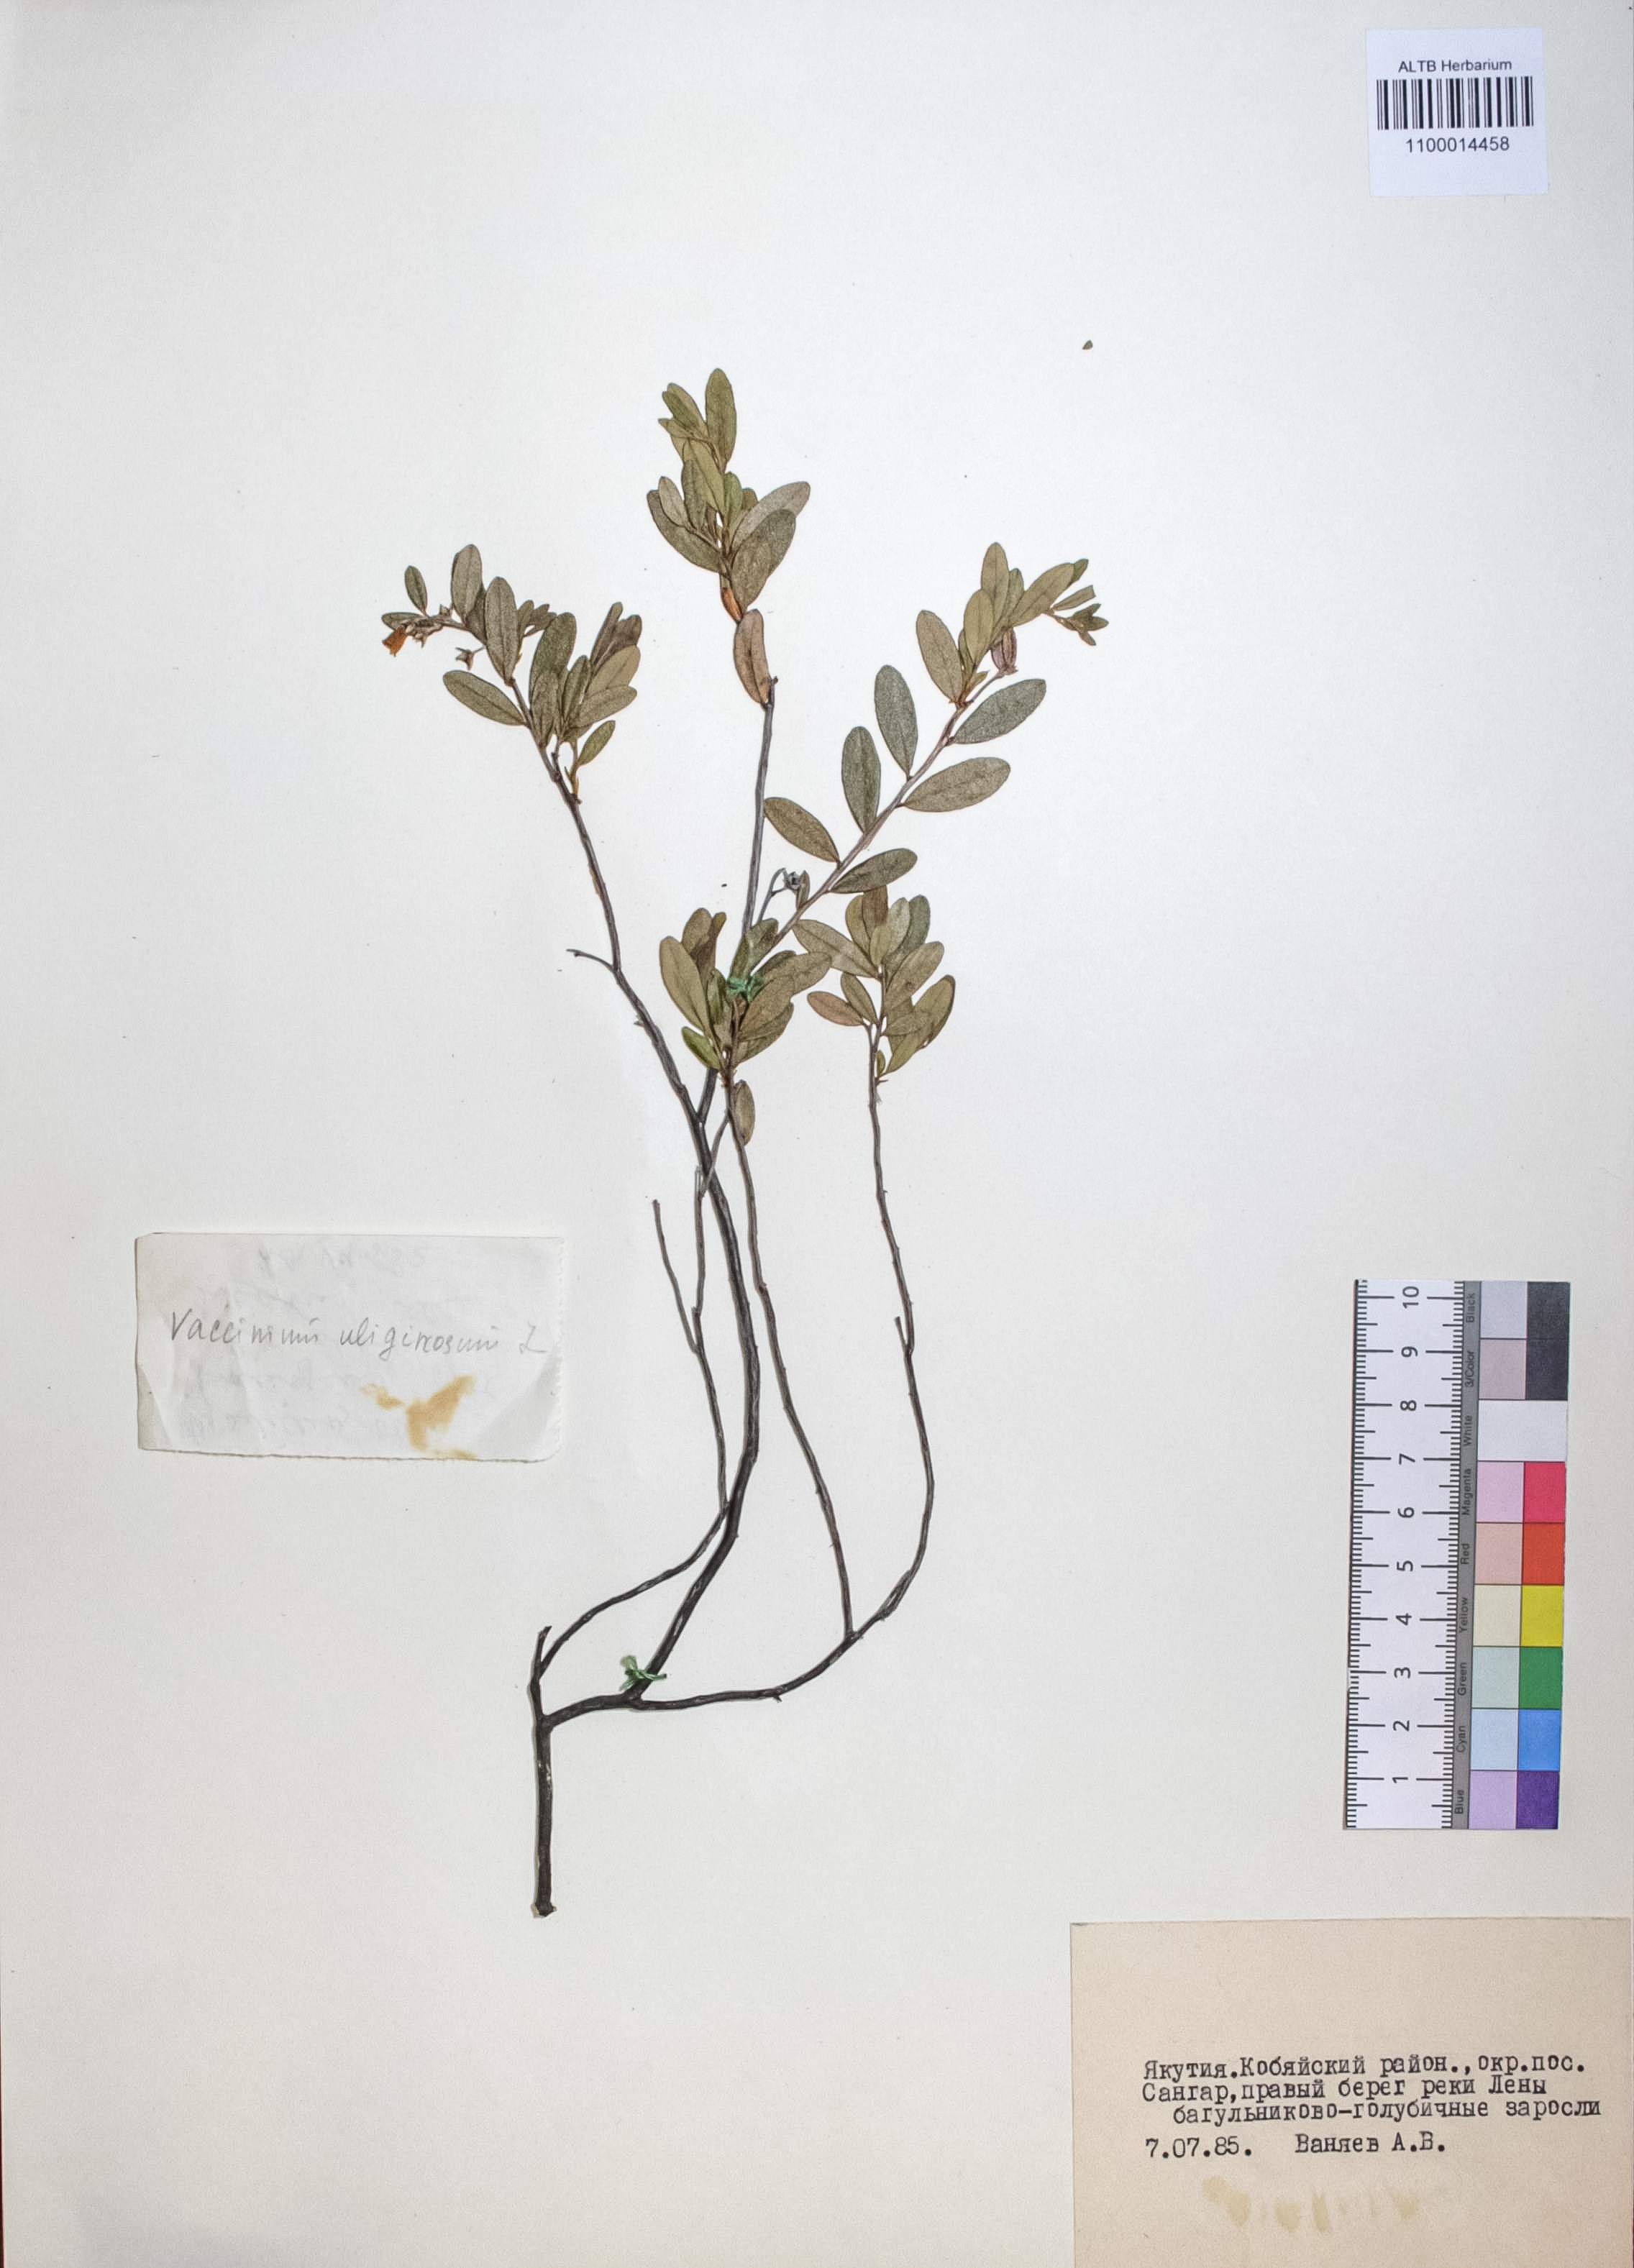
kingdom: Plantae
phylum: Tracheophyta
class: Magnoliopsida
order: Ericales
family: Ericaceae
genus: Vaccinium
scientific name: Vaccinium uliginosum
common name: Bog bilberry
